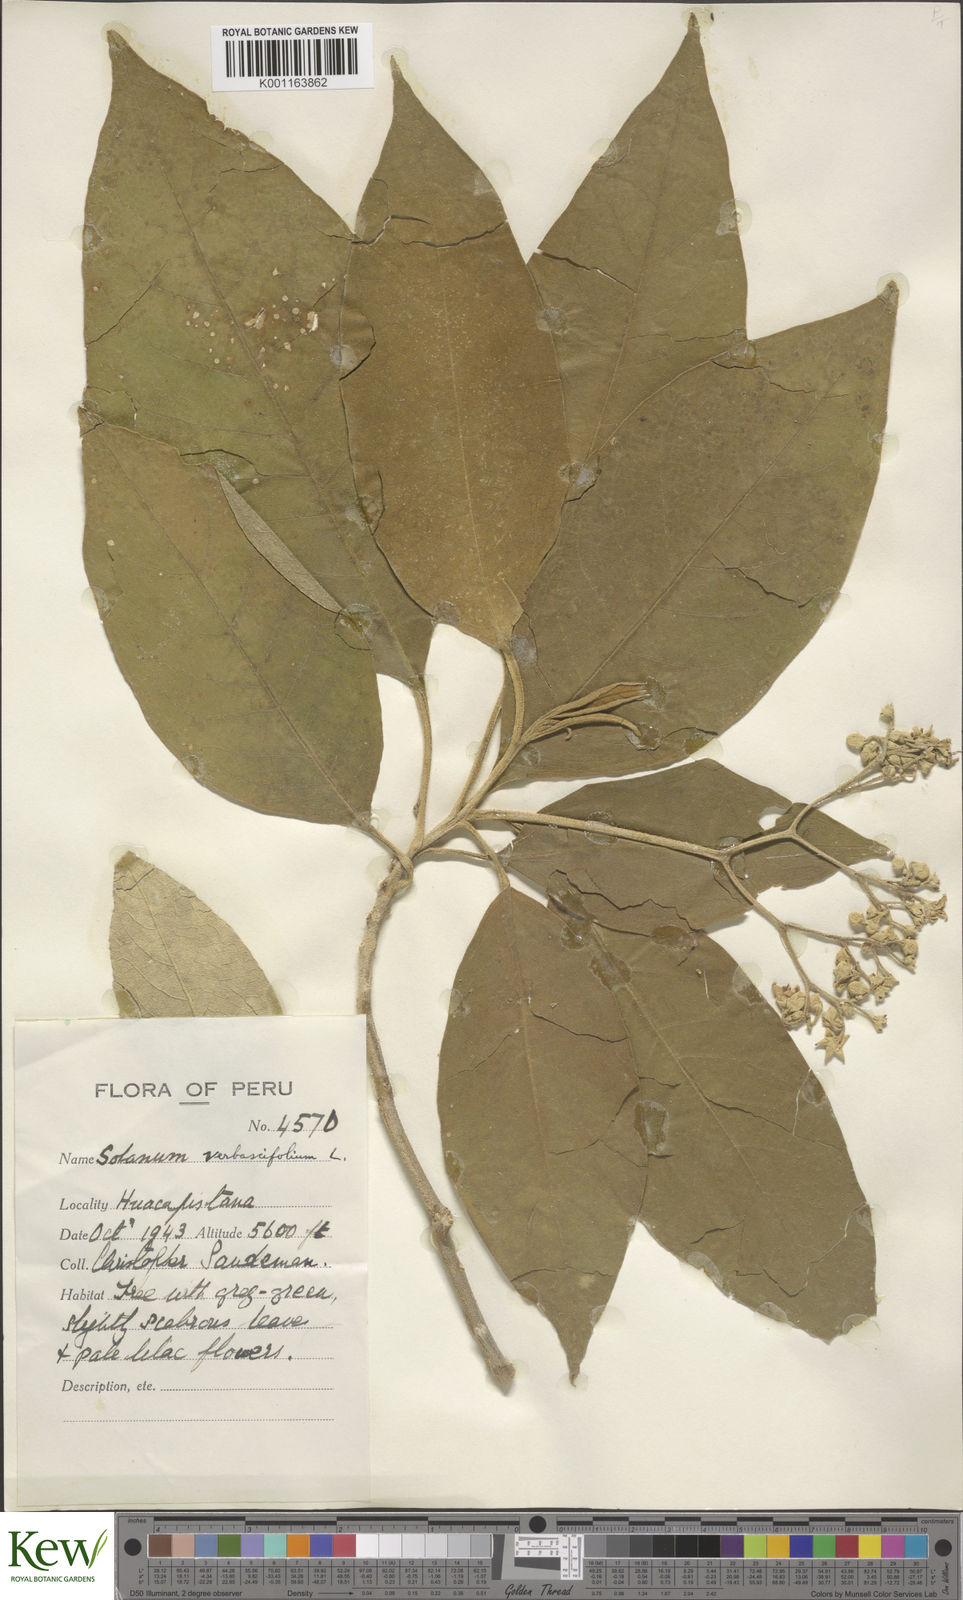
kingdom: Plantae
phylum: Tracheophyta
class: Magnoliopsida
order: Solanales
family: Solanaceae
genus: Solanum
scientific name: Solanum erianthum
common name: Tobacco-tree
